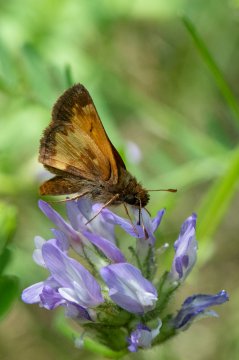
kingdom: Animalia
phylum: Arthropoda
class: Insecta
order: Lepidoptera
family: Hesperiidae
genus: Lon
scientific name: Lon hobomok
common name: Hobomok Skipper
